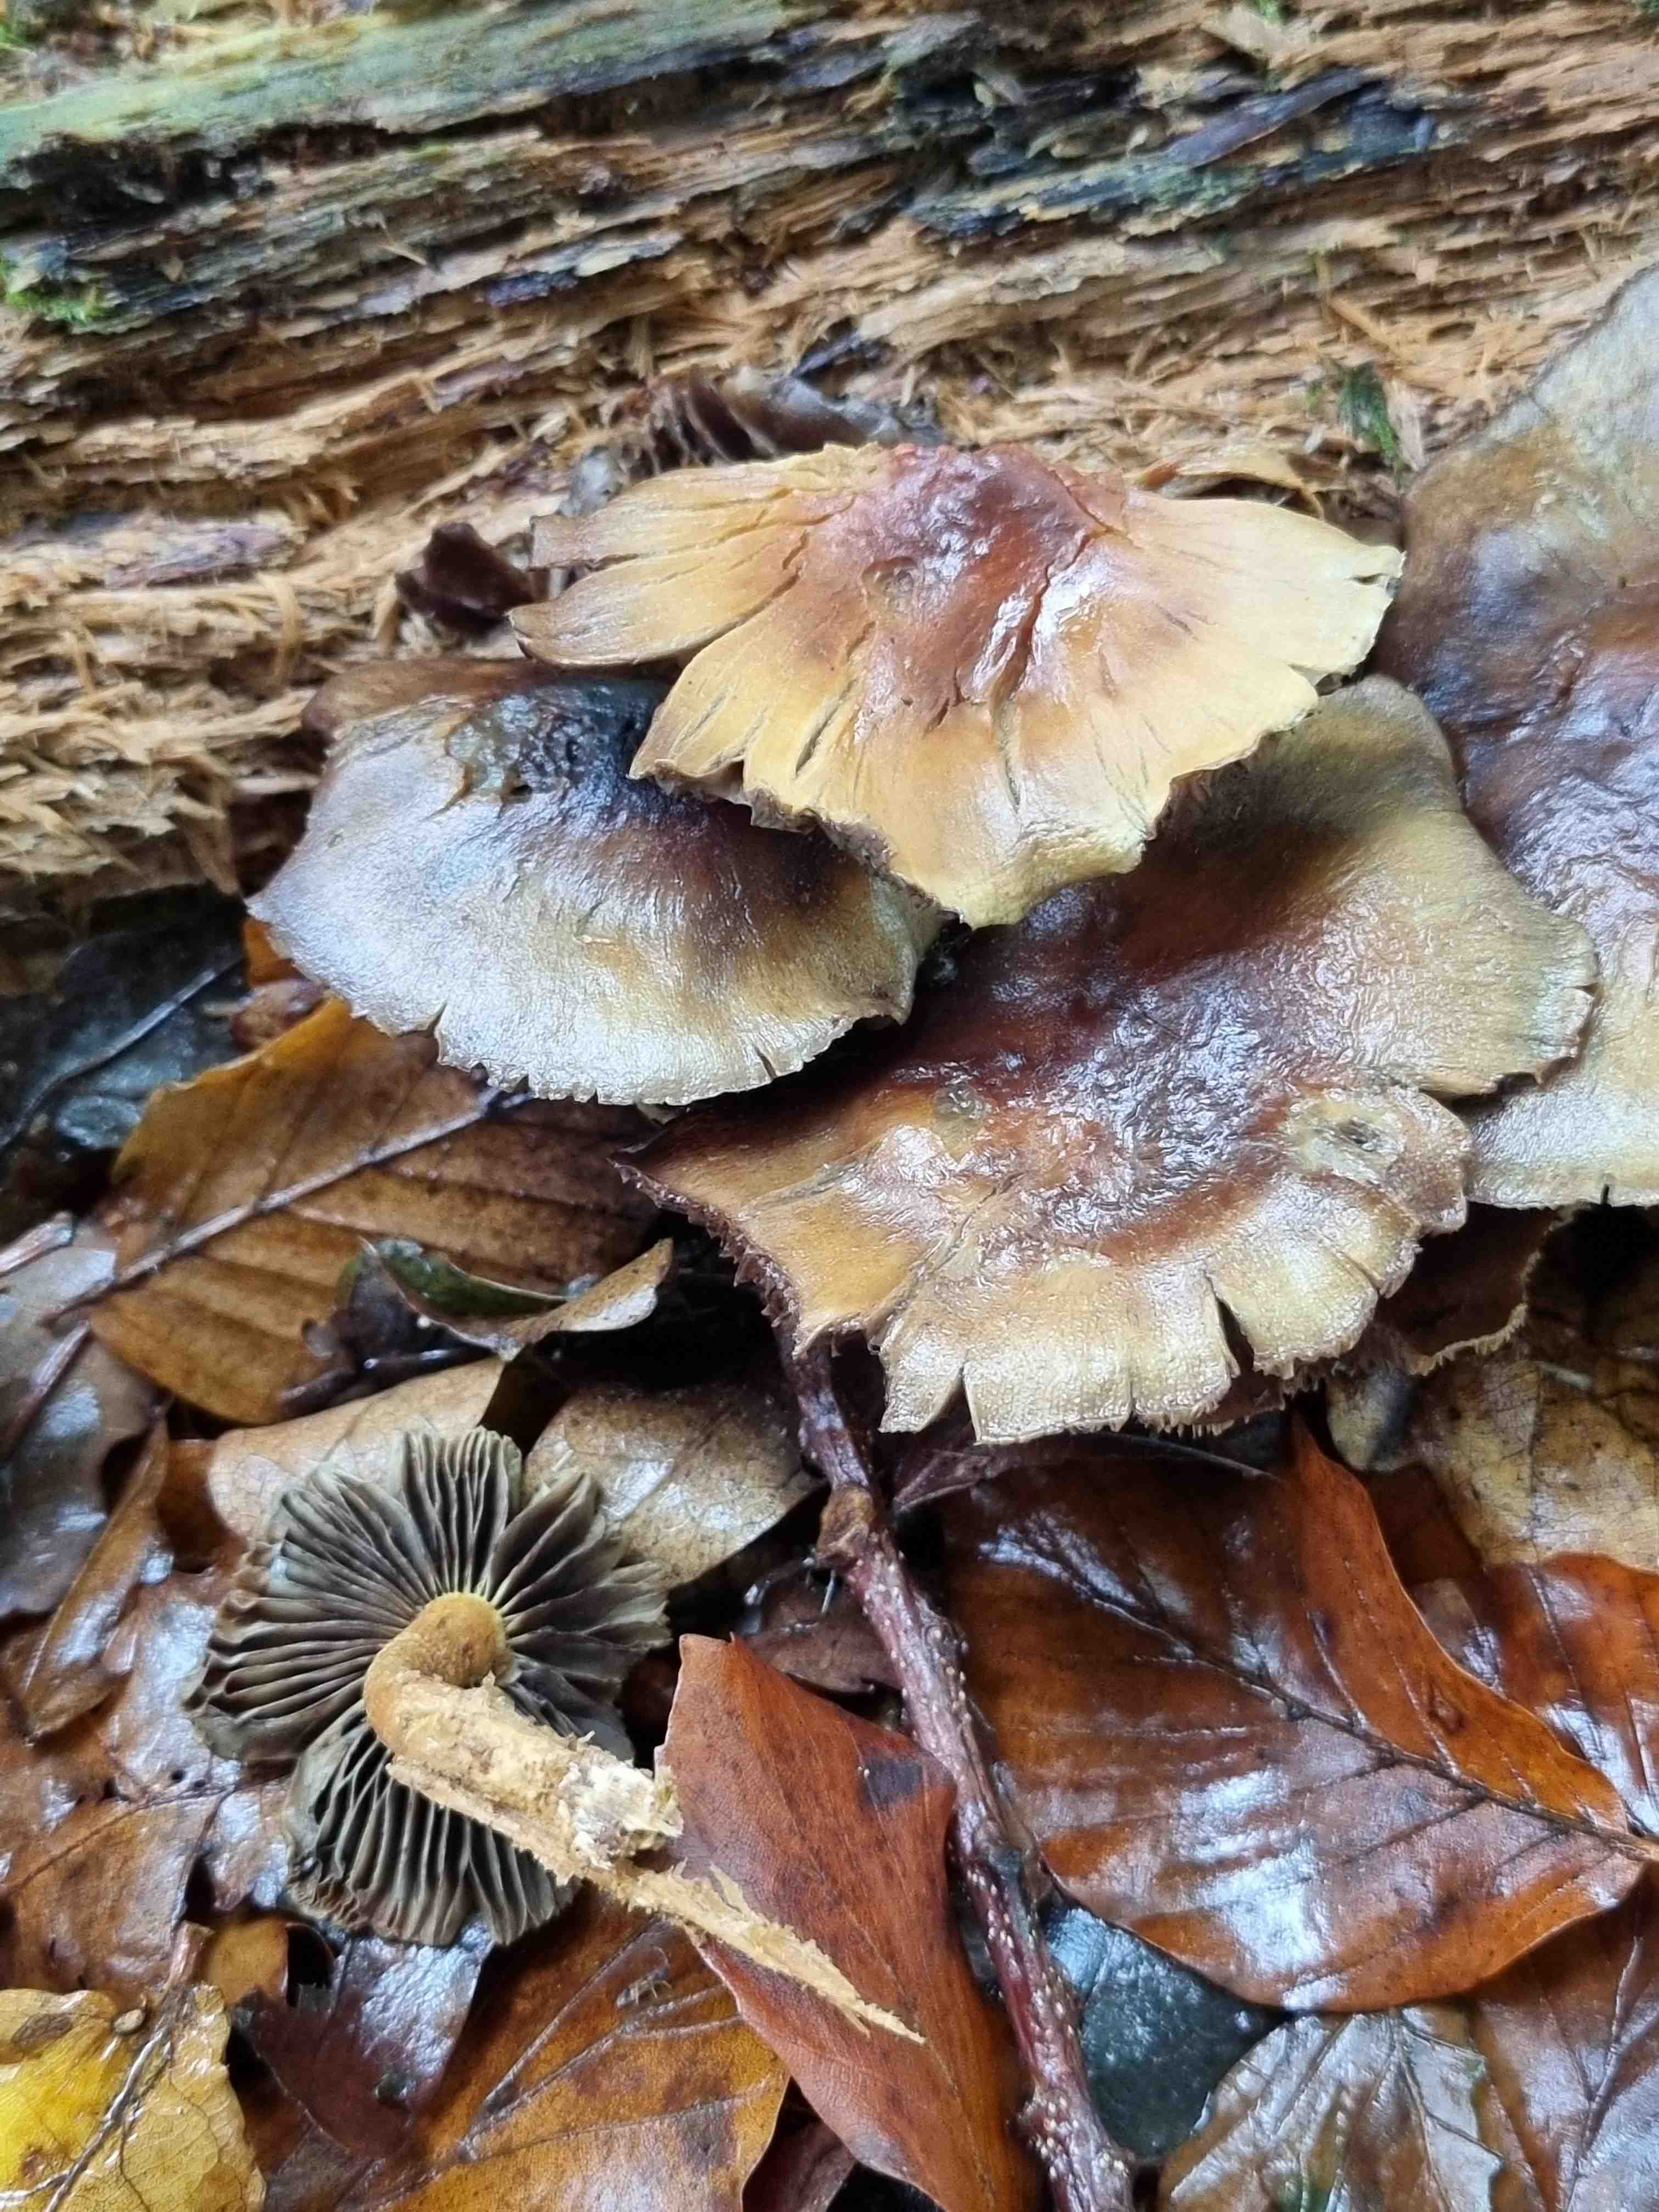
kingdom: Fungi
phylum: Basidiomycota
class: Agaricomycetes
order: Agaricales
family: Strophariaceae
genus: Hypholoma
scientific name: Hypholoma fasciculare
